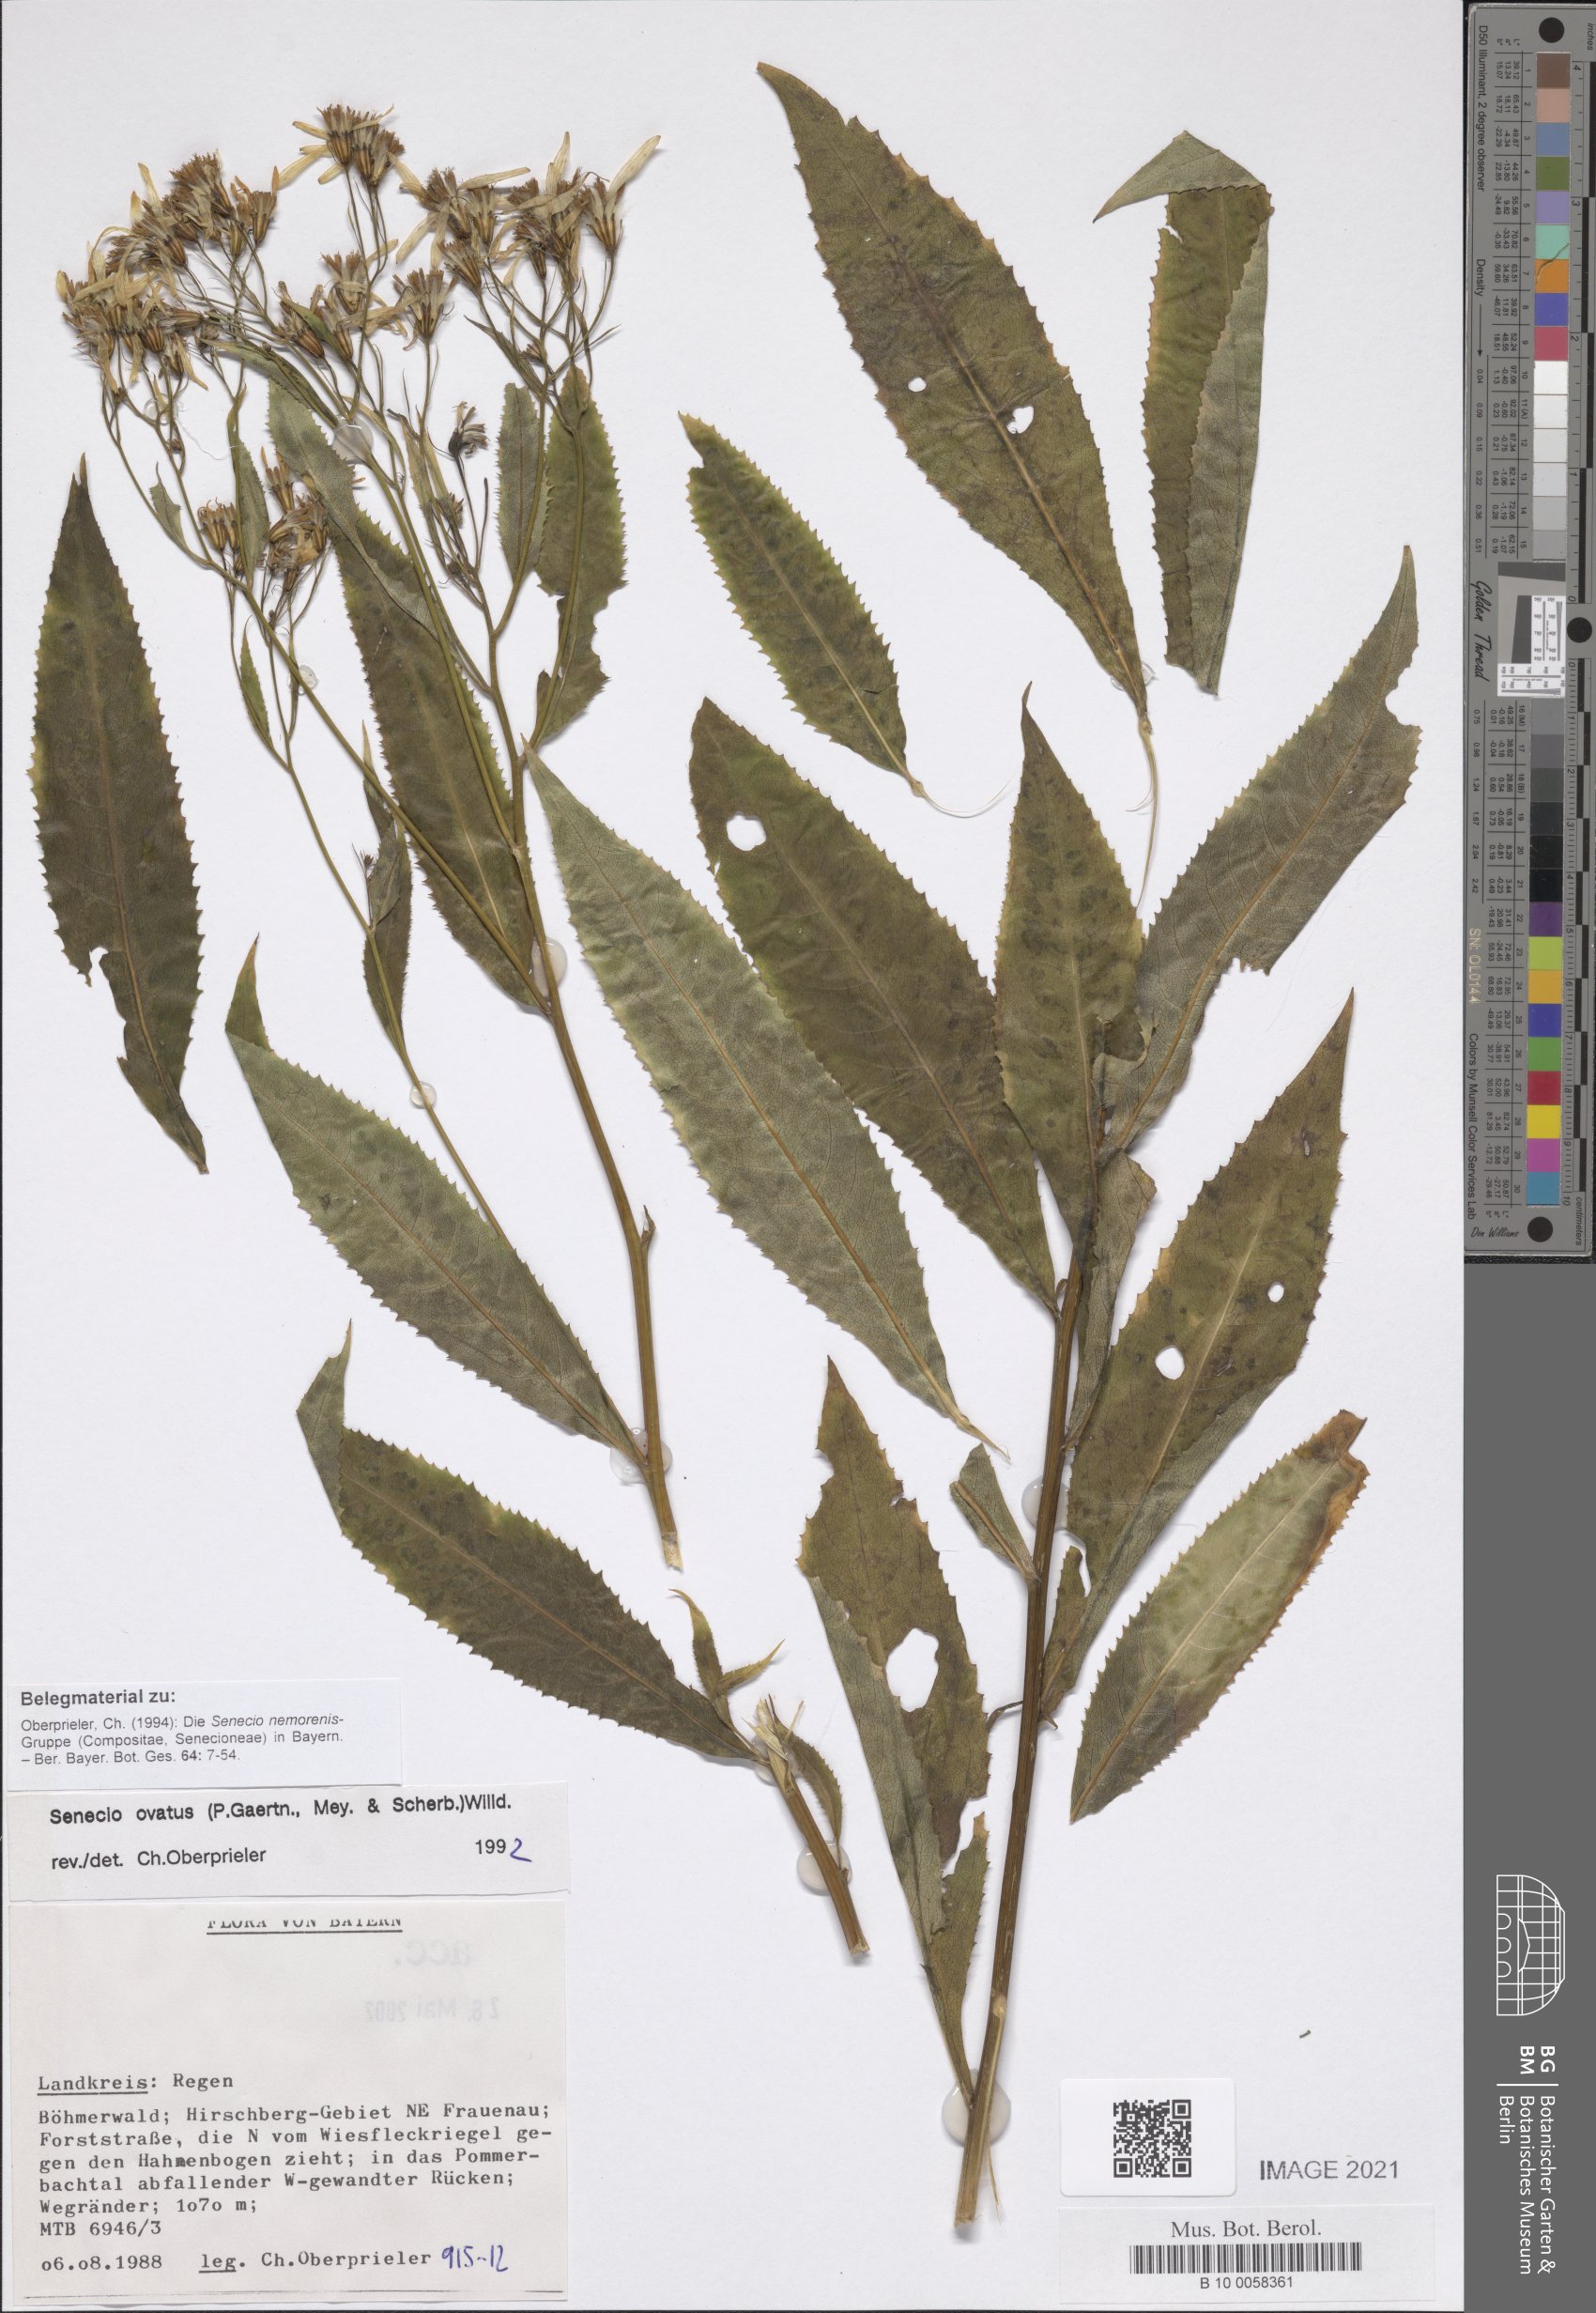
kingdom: Plantae
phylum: Tracheophyta
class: Magnoliopsida
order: Asterales
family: Asteraceae
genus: Senecio
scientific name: Senecio ovatus
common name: Wood ragwort
